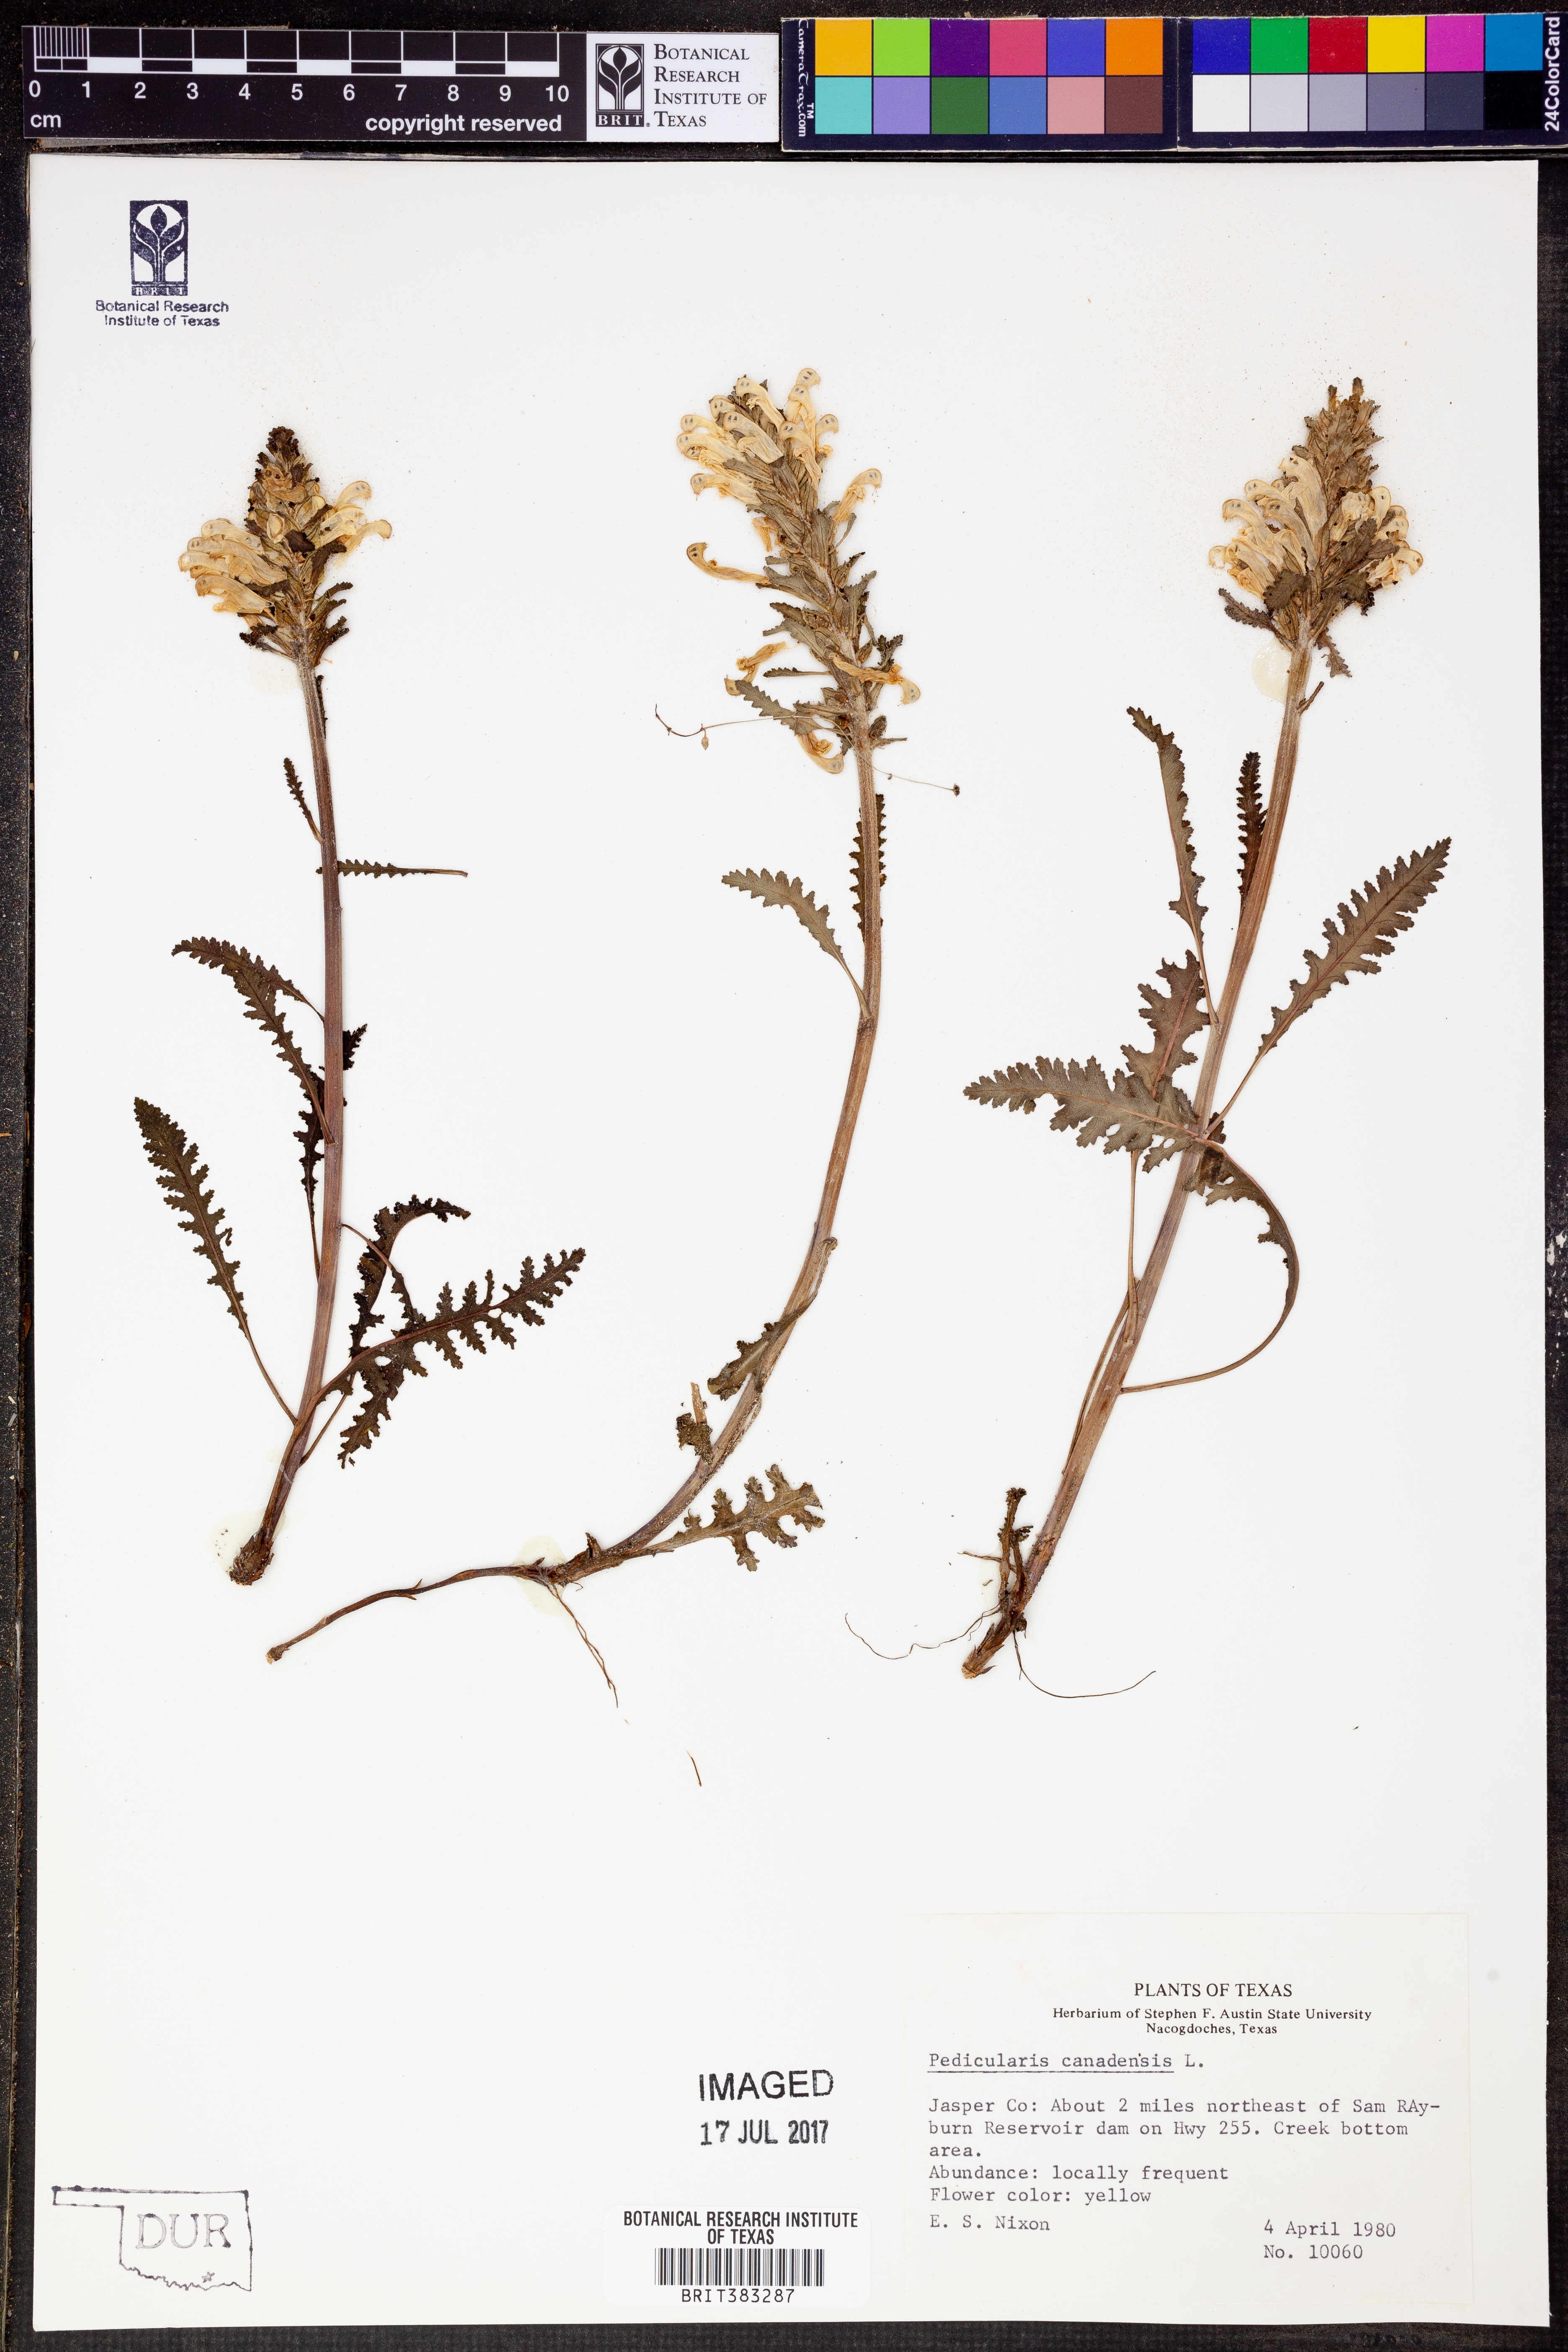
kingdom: Plantae
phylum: Tracheophyta
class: Magnoliopsida
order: Lamiales
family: Orobanchaceae
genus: Pedicularis
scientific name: Pedicularis canadensis
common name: Early lousewort
